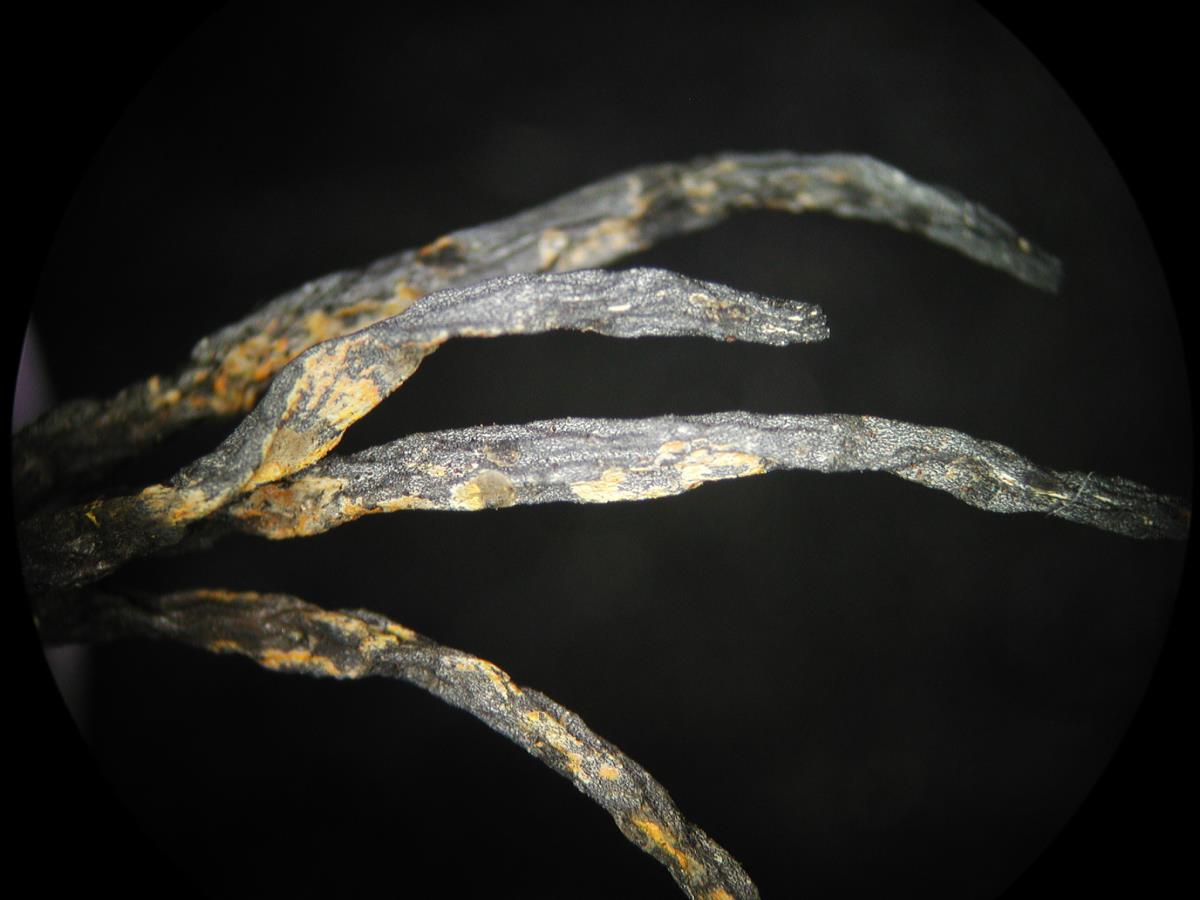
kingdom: Fungi
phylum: Ascomycota
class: Sordariomycetes
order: Xylariales
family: Xylariaceae
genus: Xylaria
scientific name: Xylaria hypoxylon
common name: Candle-snuff fungus
